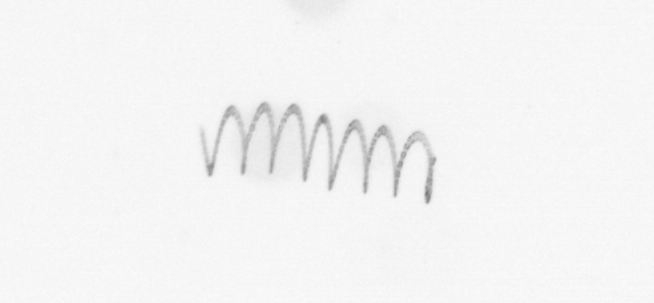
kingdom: Chromista
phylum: Ochrophyta
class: Bacillariophyceae
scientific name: Bacillariophyceae
